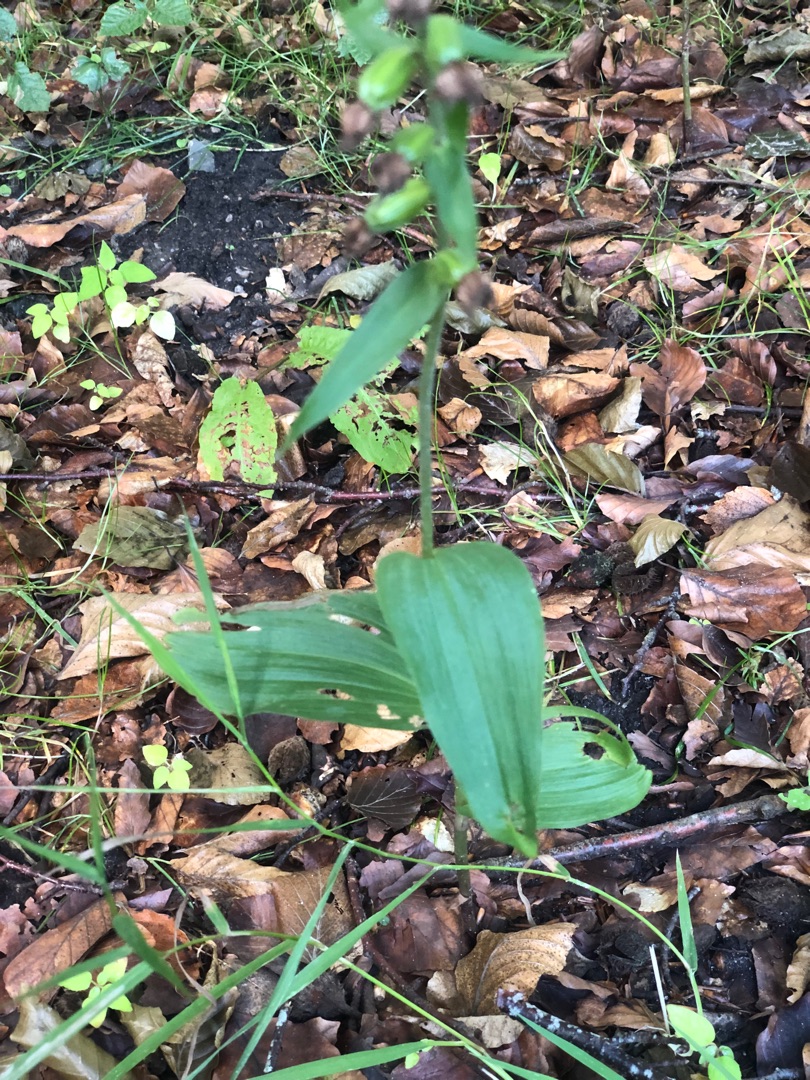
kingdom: Plantae
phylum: Tracheophyta
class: Liliopsida
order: Asparagales
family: Orchidaceae
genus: Epipactis
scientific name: Epipactis helleborine
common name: Skov-hullæbe
